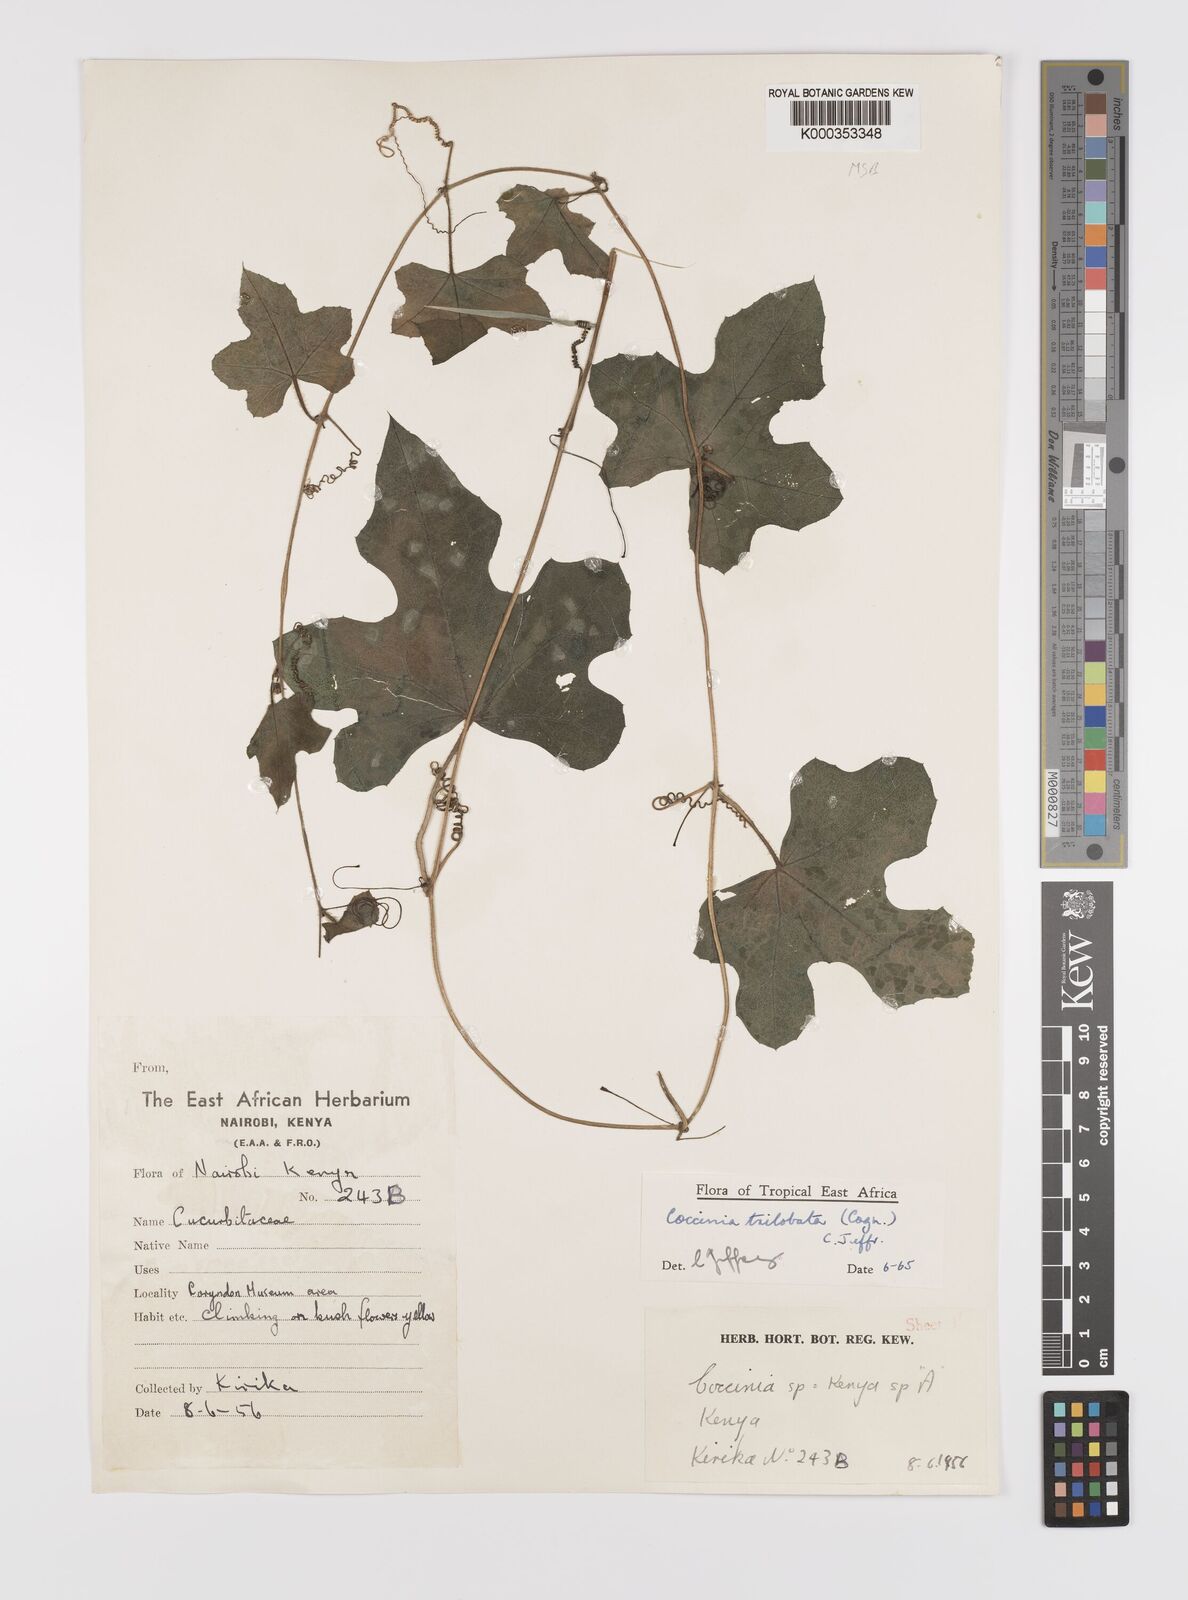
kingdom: Plantae
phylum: Tracheophyta
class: Magnoliopsida
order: Cucurbitales
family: Cucurbitaceae
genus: Coccinia
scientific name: Coccinia trilobata
